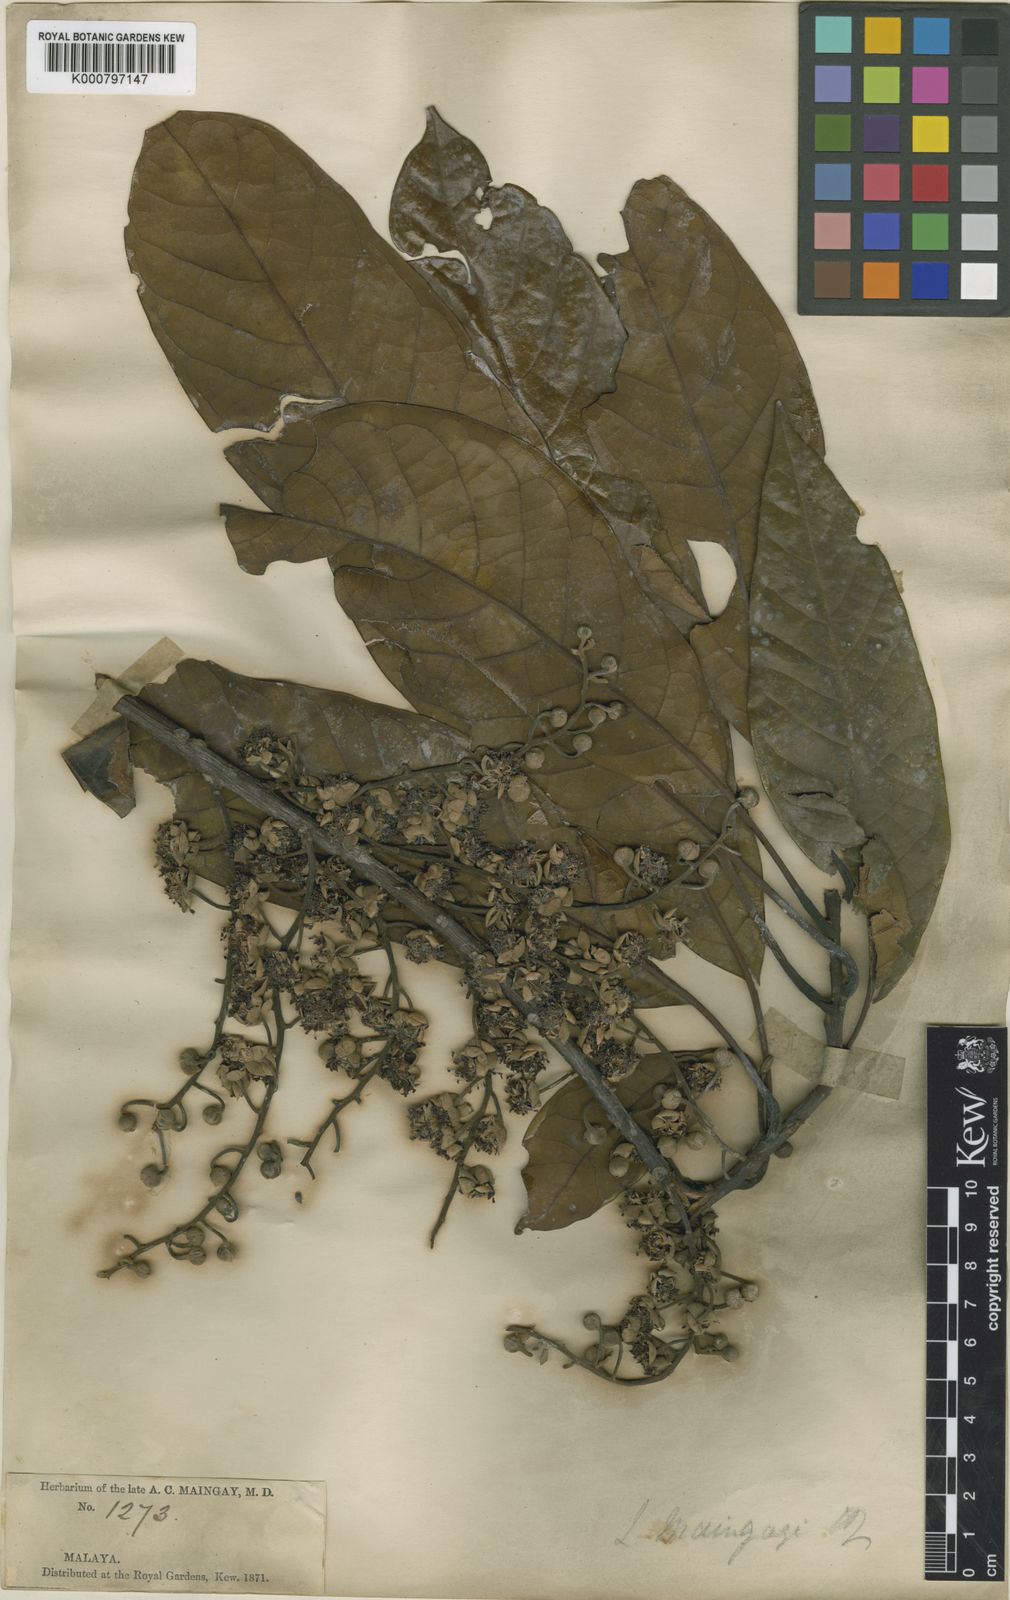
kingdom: Plantae
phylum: Tracheophyta
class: Magnoliopsida
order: Laurales
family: Lauraceae
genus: Litsea
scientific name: Litsea maingayi
